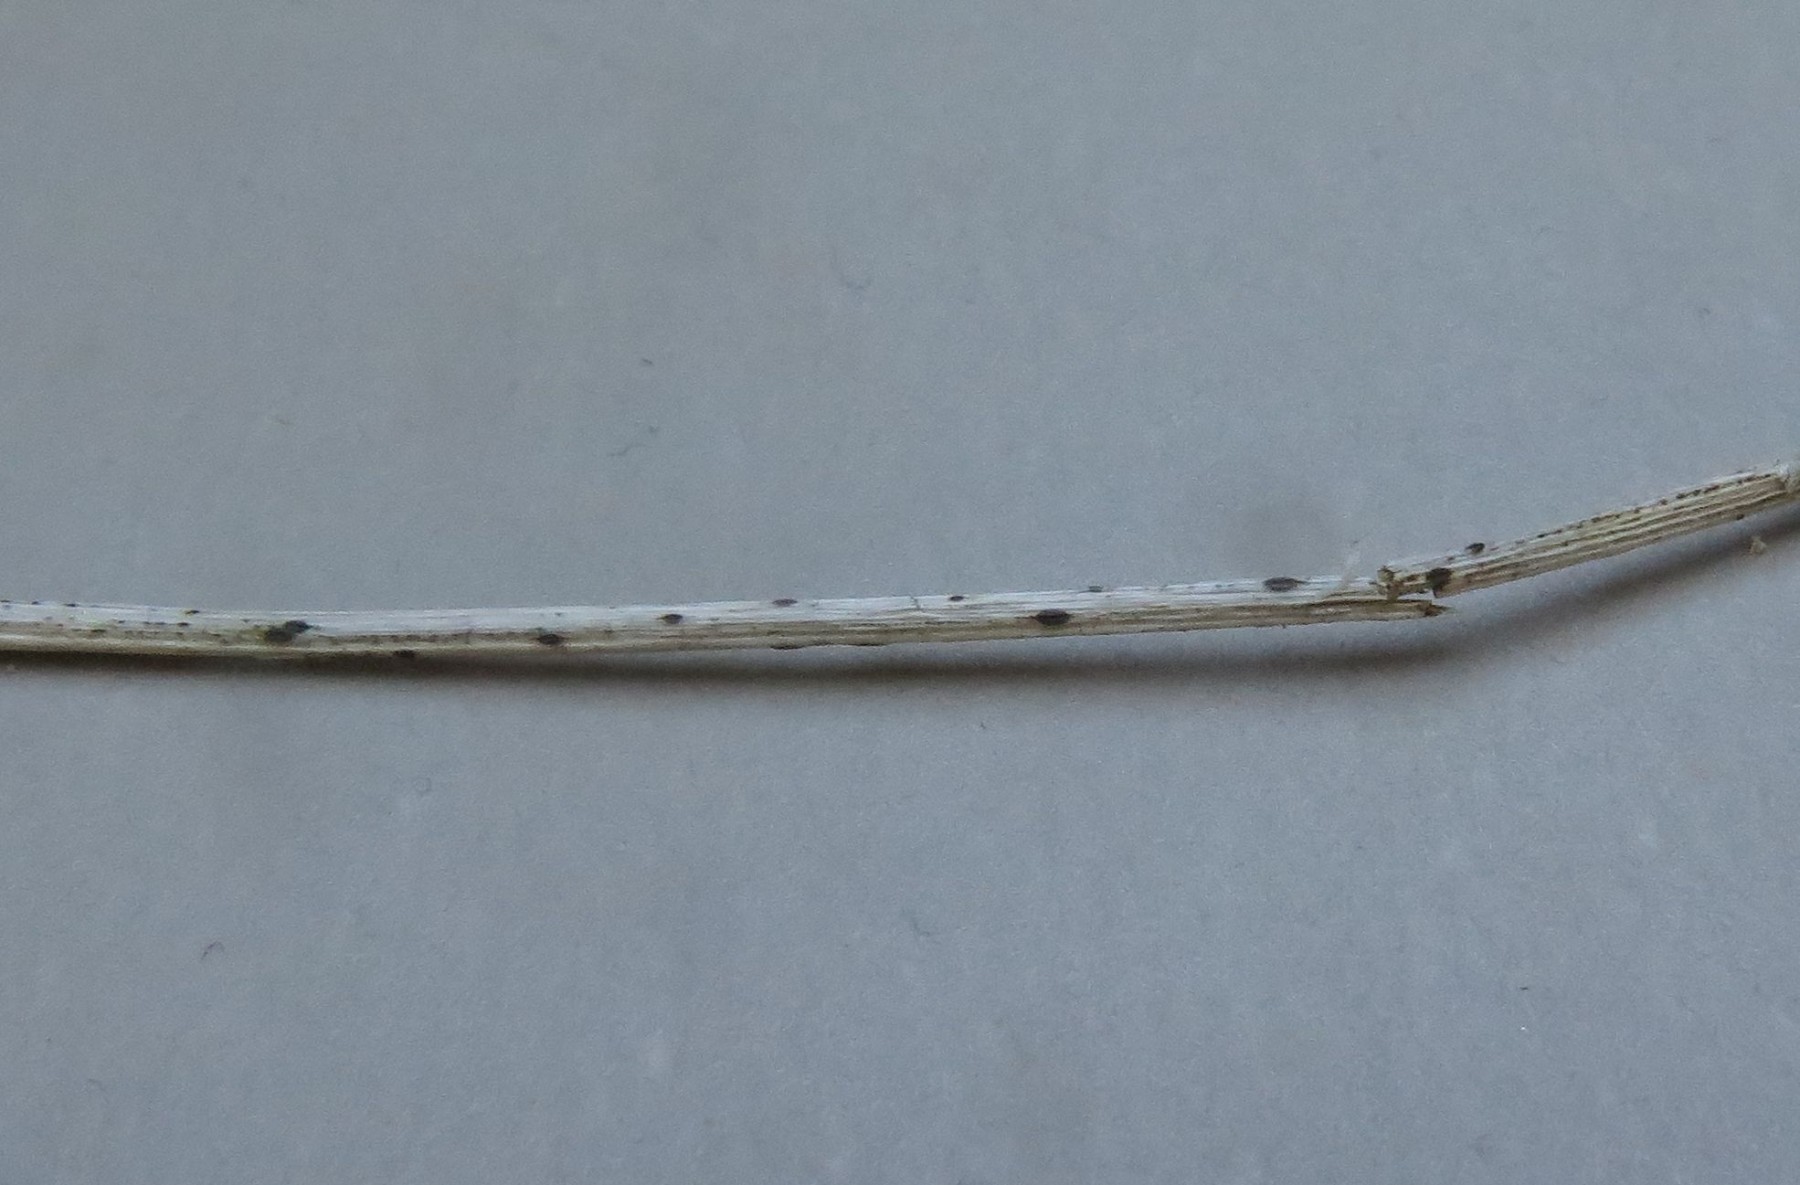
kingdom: Fungi
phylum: Ascomycota
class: Leotiomycetes
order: Rhytismatales
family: Rhytismataceae
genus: Lophodermium
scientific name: Lophodermium arundinaceum
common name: almindelig fureplet
